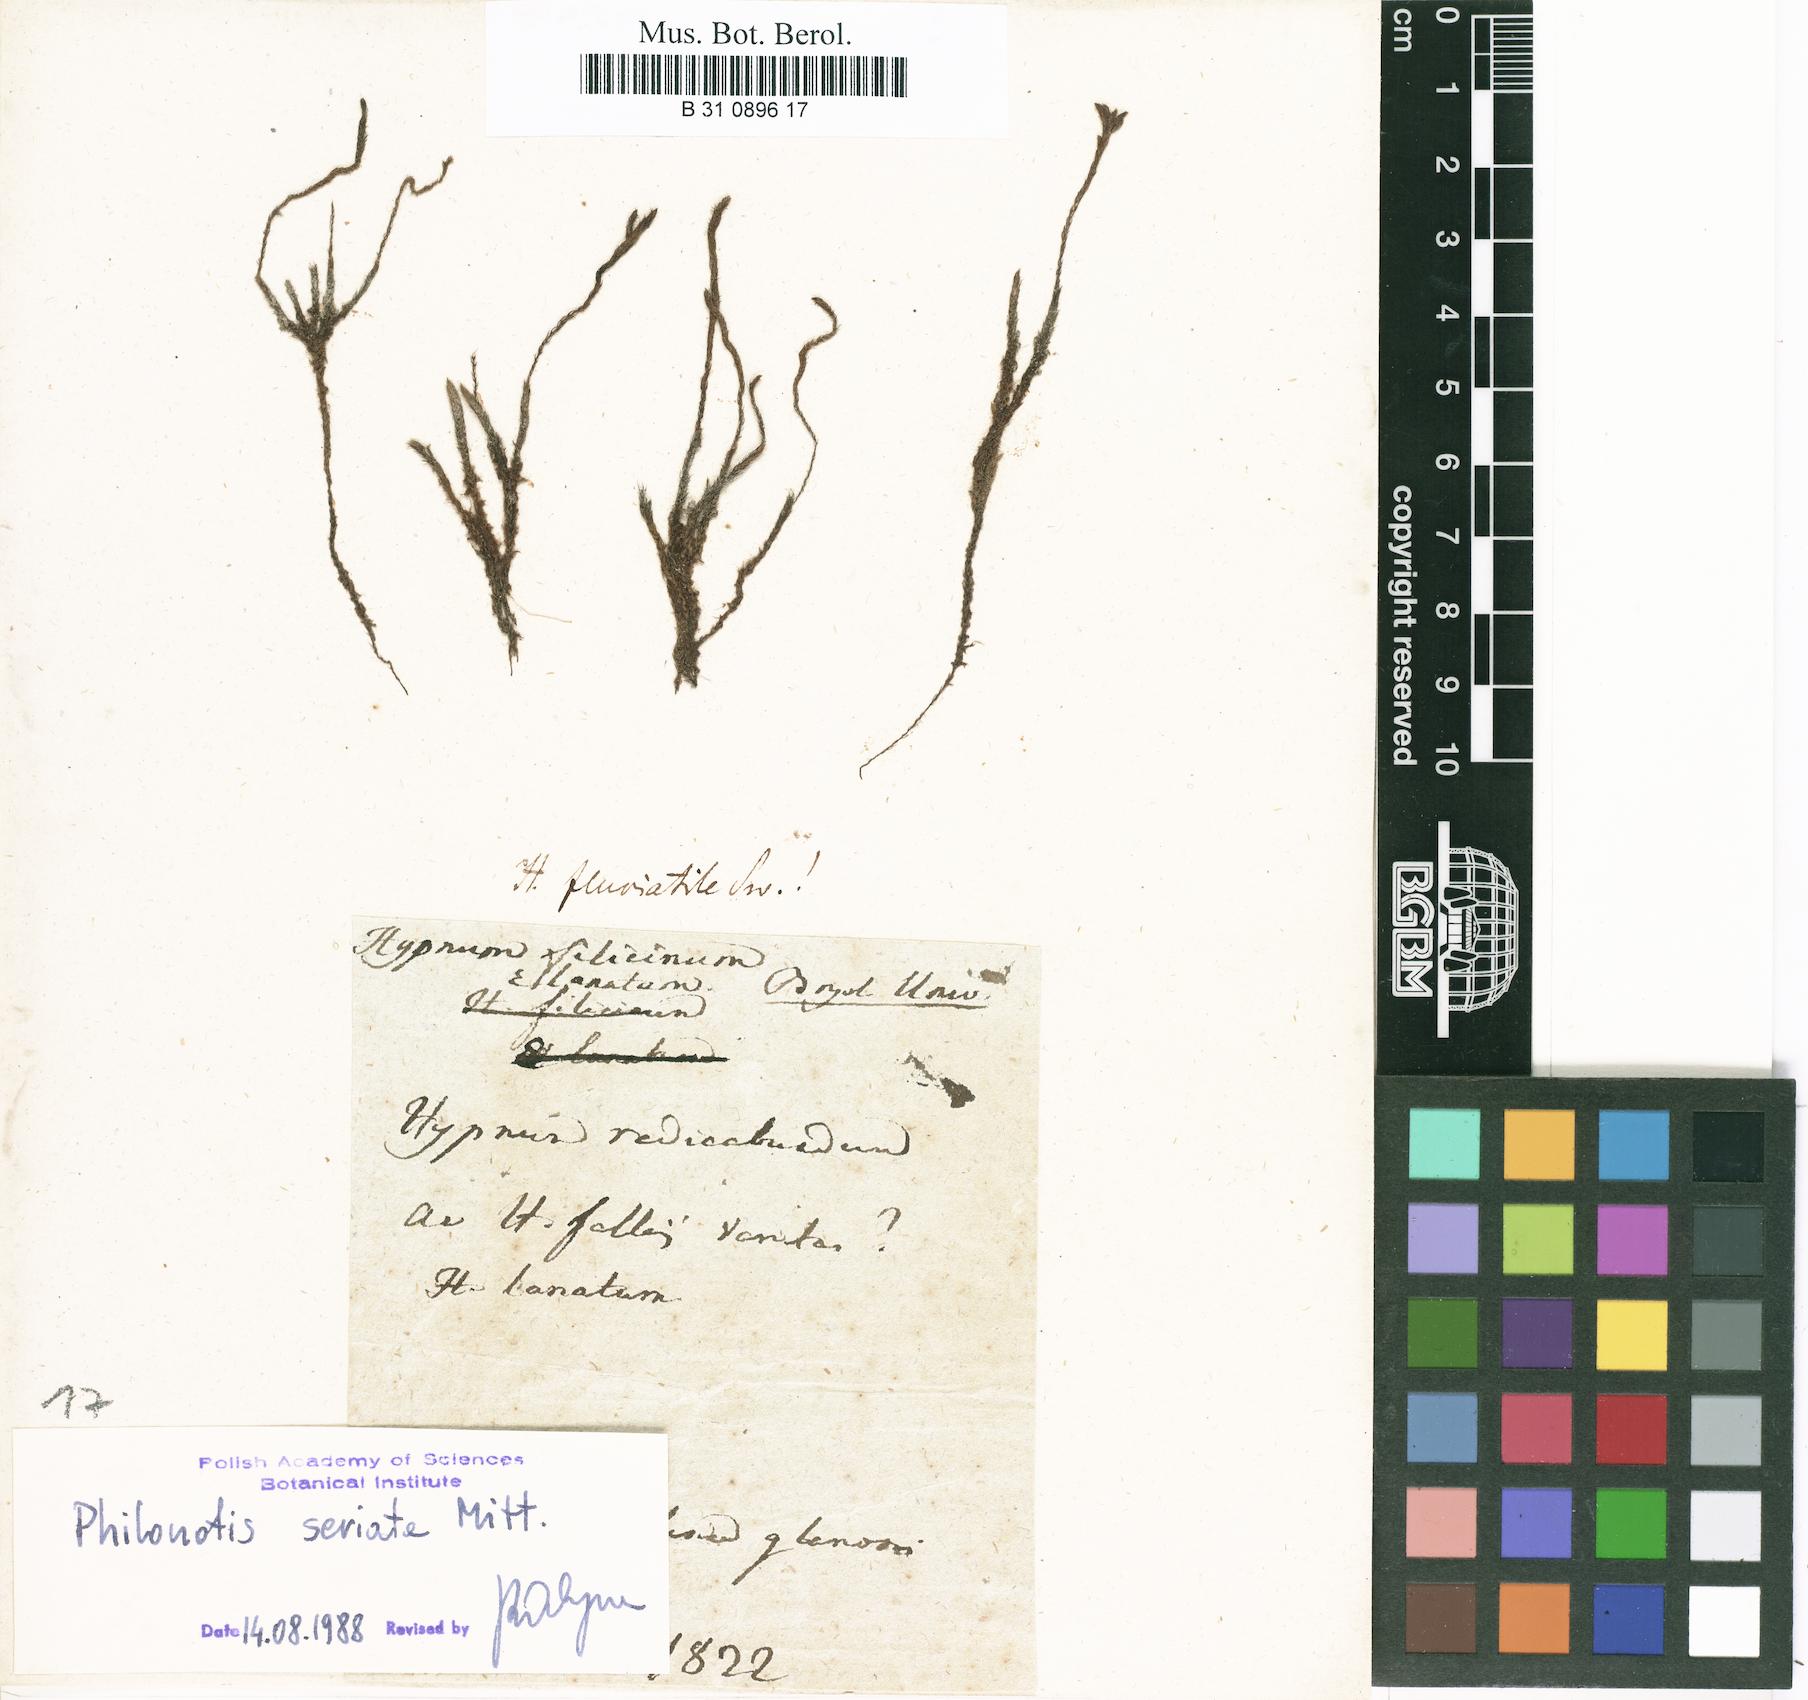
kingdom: Plantae
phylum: Bryophyta
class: Bryopsida
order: Hypnales
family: Amblystegiaceae
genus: Cratoneuron
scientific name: Cratoneuron filicinum
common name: Fern-leaved hook moss
